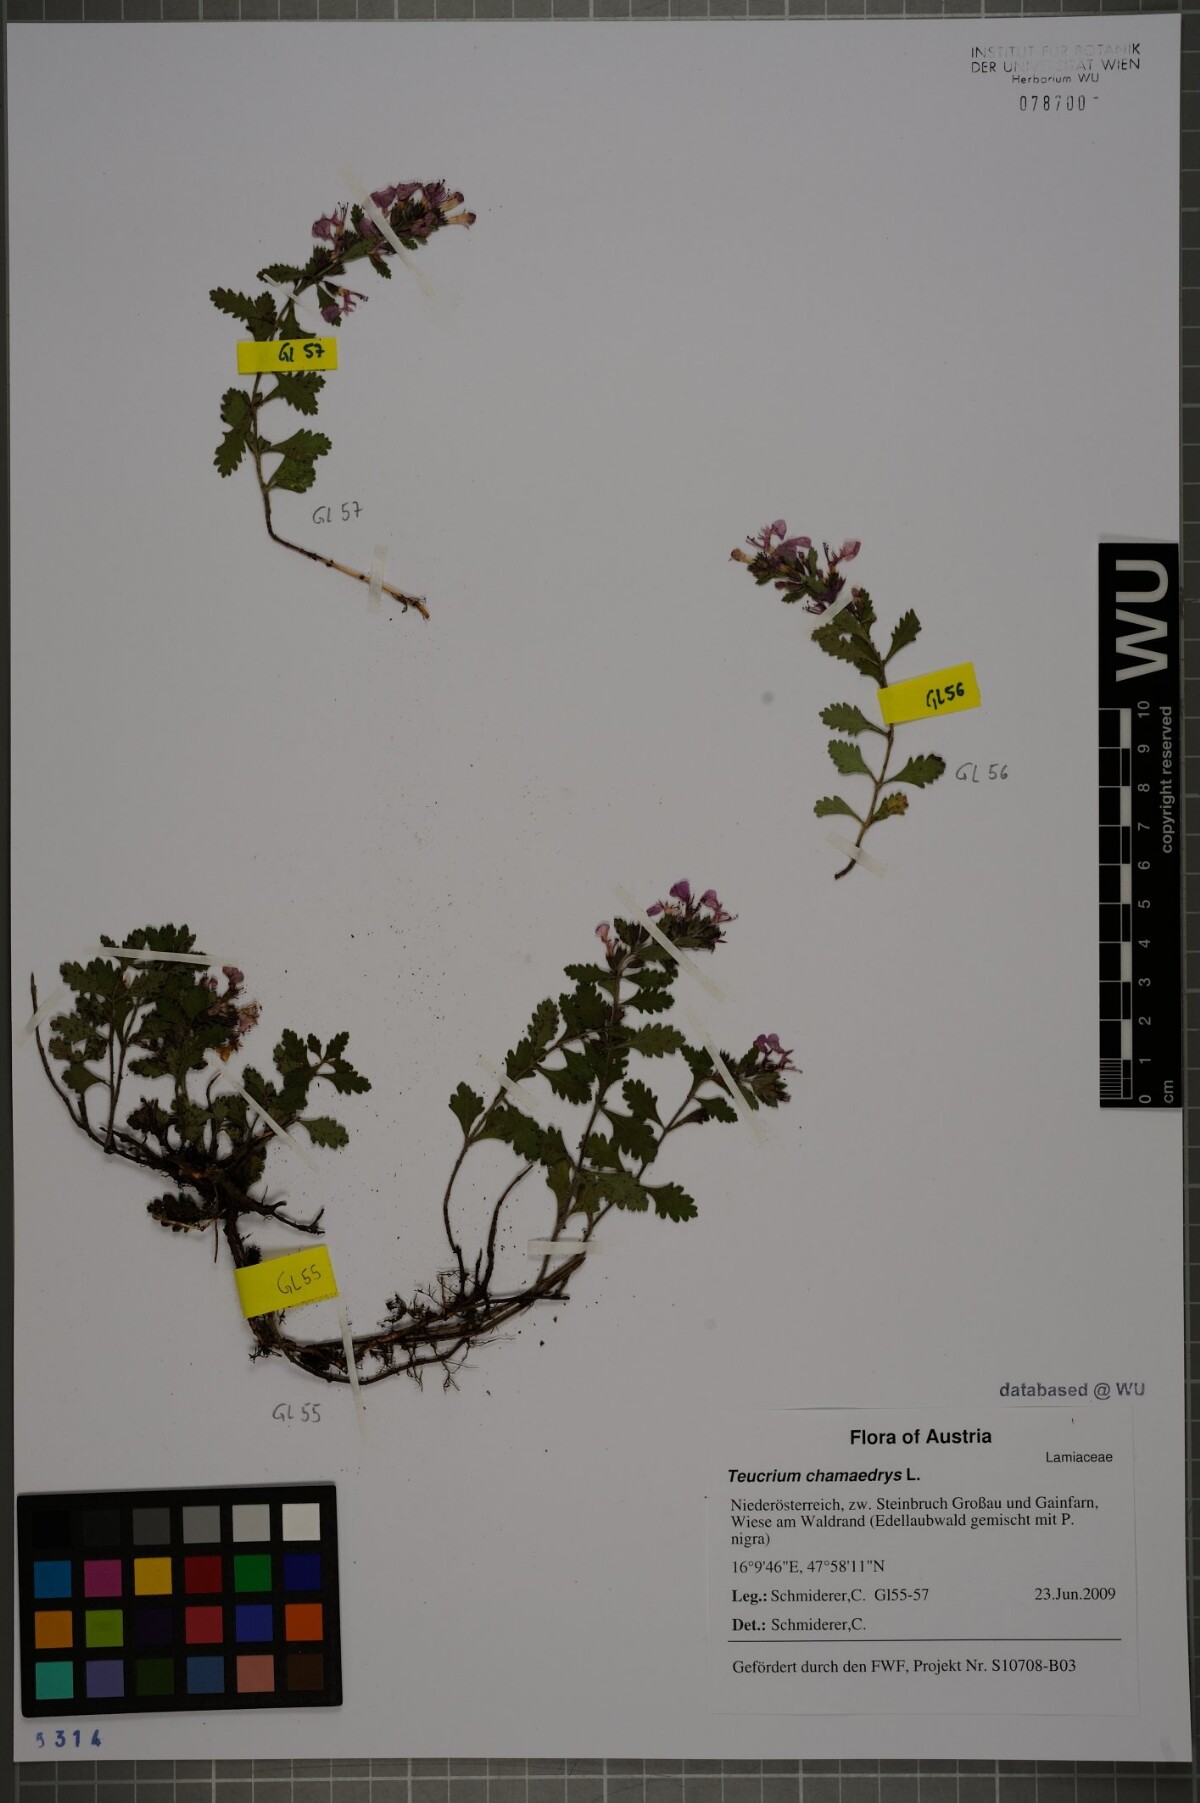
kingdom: Plantae
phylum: Tracheophyta
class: Magnoliopsida
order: Lamiales
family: Lamiaceae
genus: Teucrium
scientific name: Teucrium chamaedrys
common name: Wall germander
